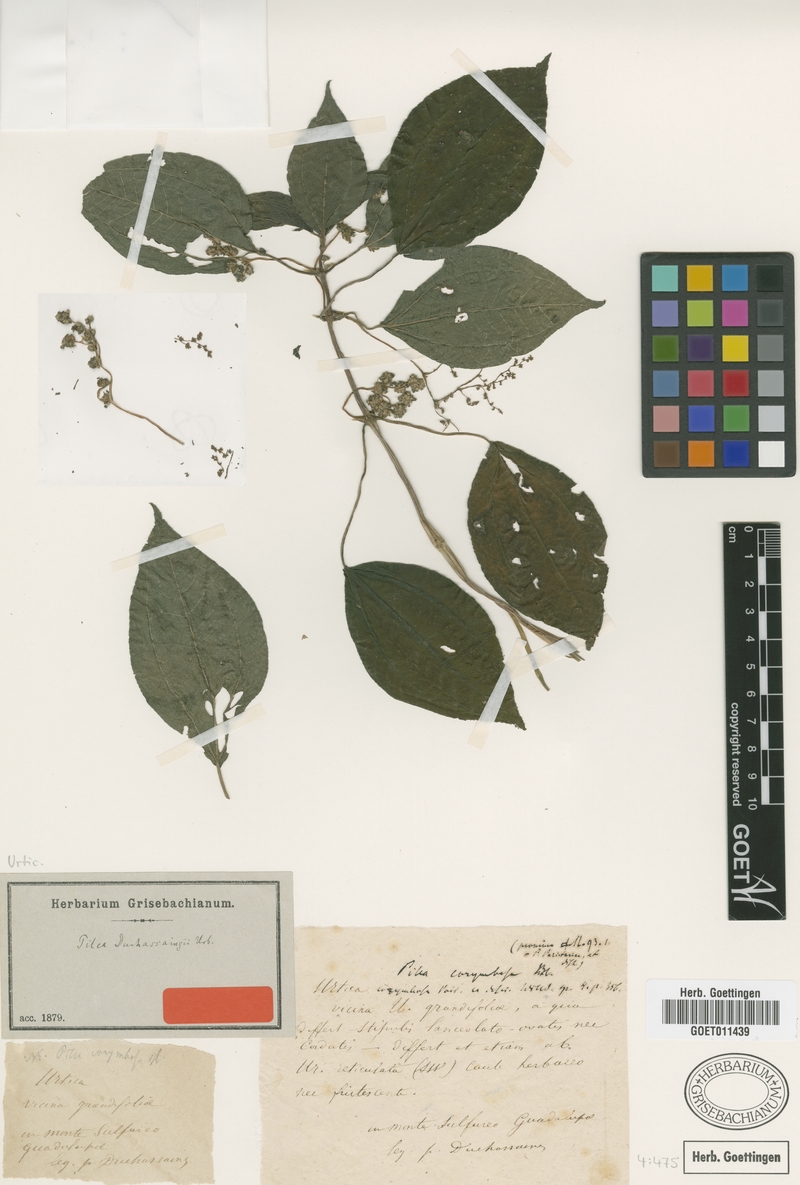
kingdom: Plantae
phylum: Tracheophyta
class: Magnoliopsida
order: Rosales
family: Urticaceae
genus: Pilea
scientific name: Pilea rivoriae
